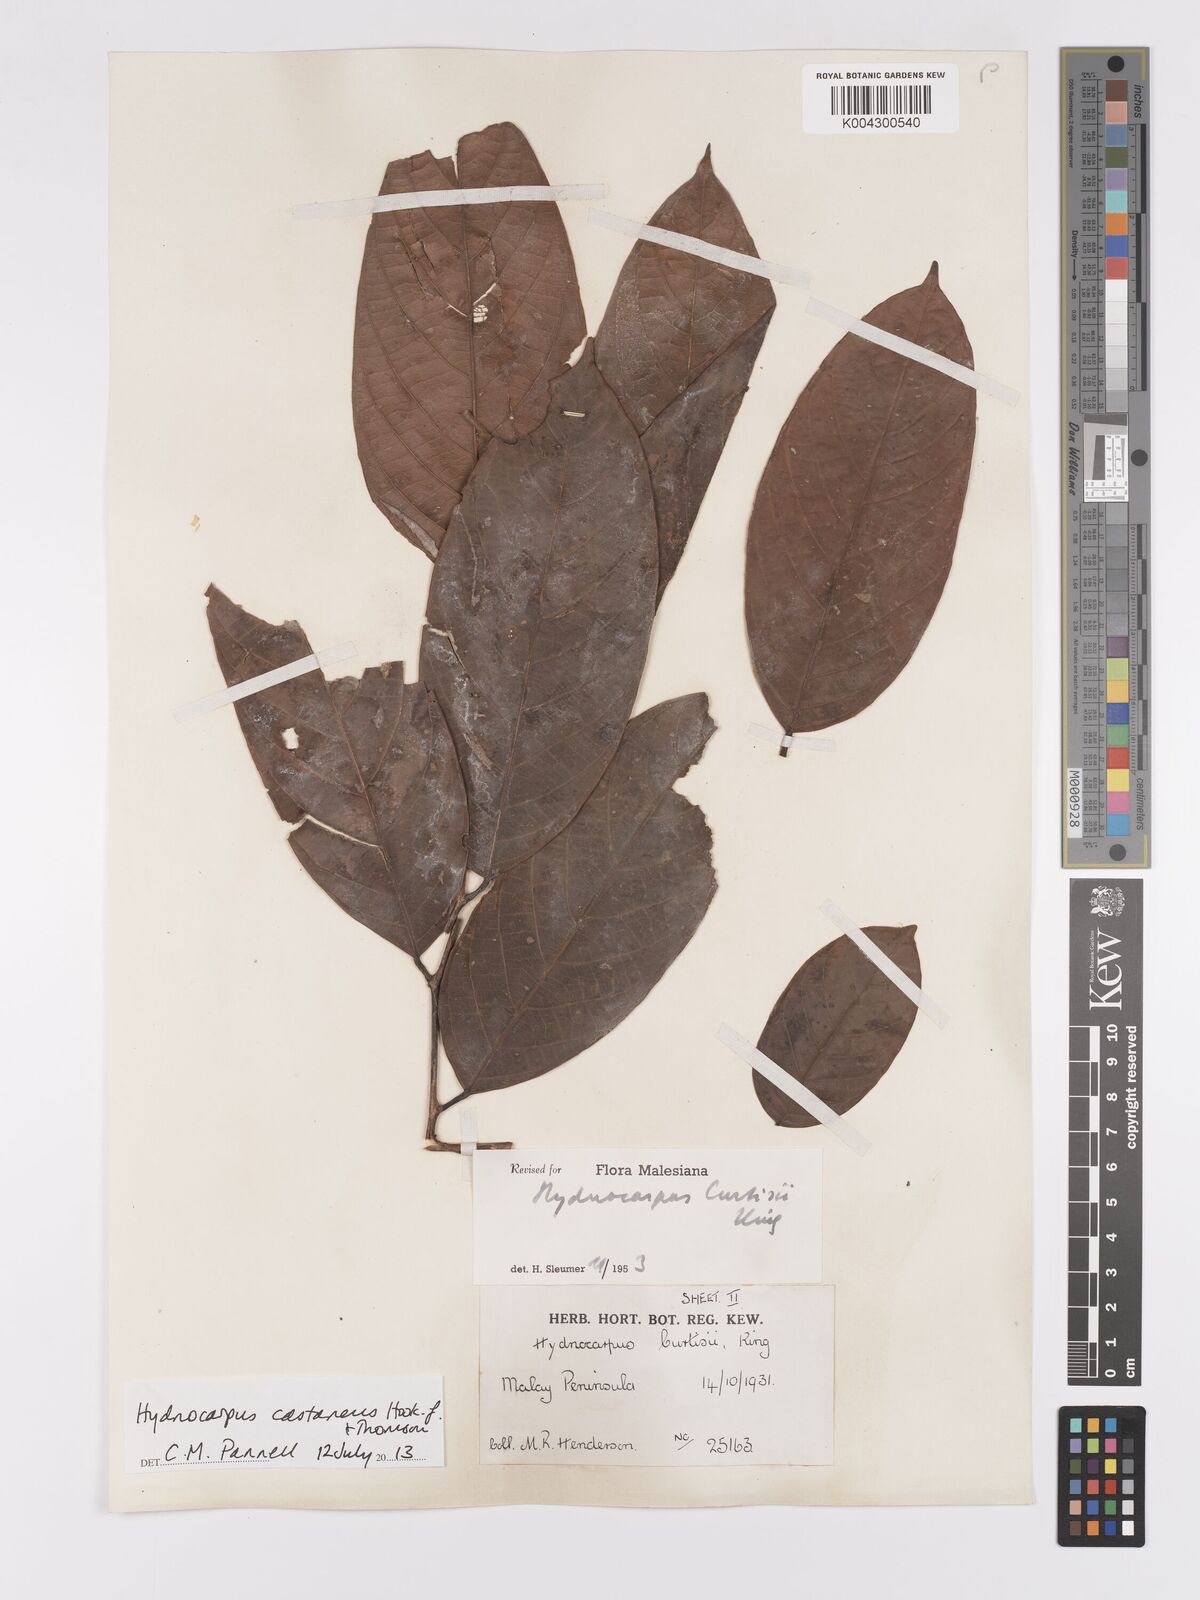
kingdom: Plantae
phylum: Tracheophyta
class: Magnoliopsida
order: Malpighiales
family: Achariaceae
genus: Hydnocarpus
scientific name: Hydnocarpus curtisii
